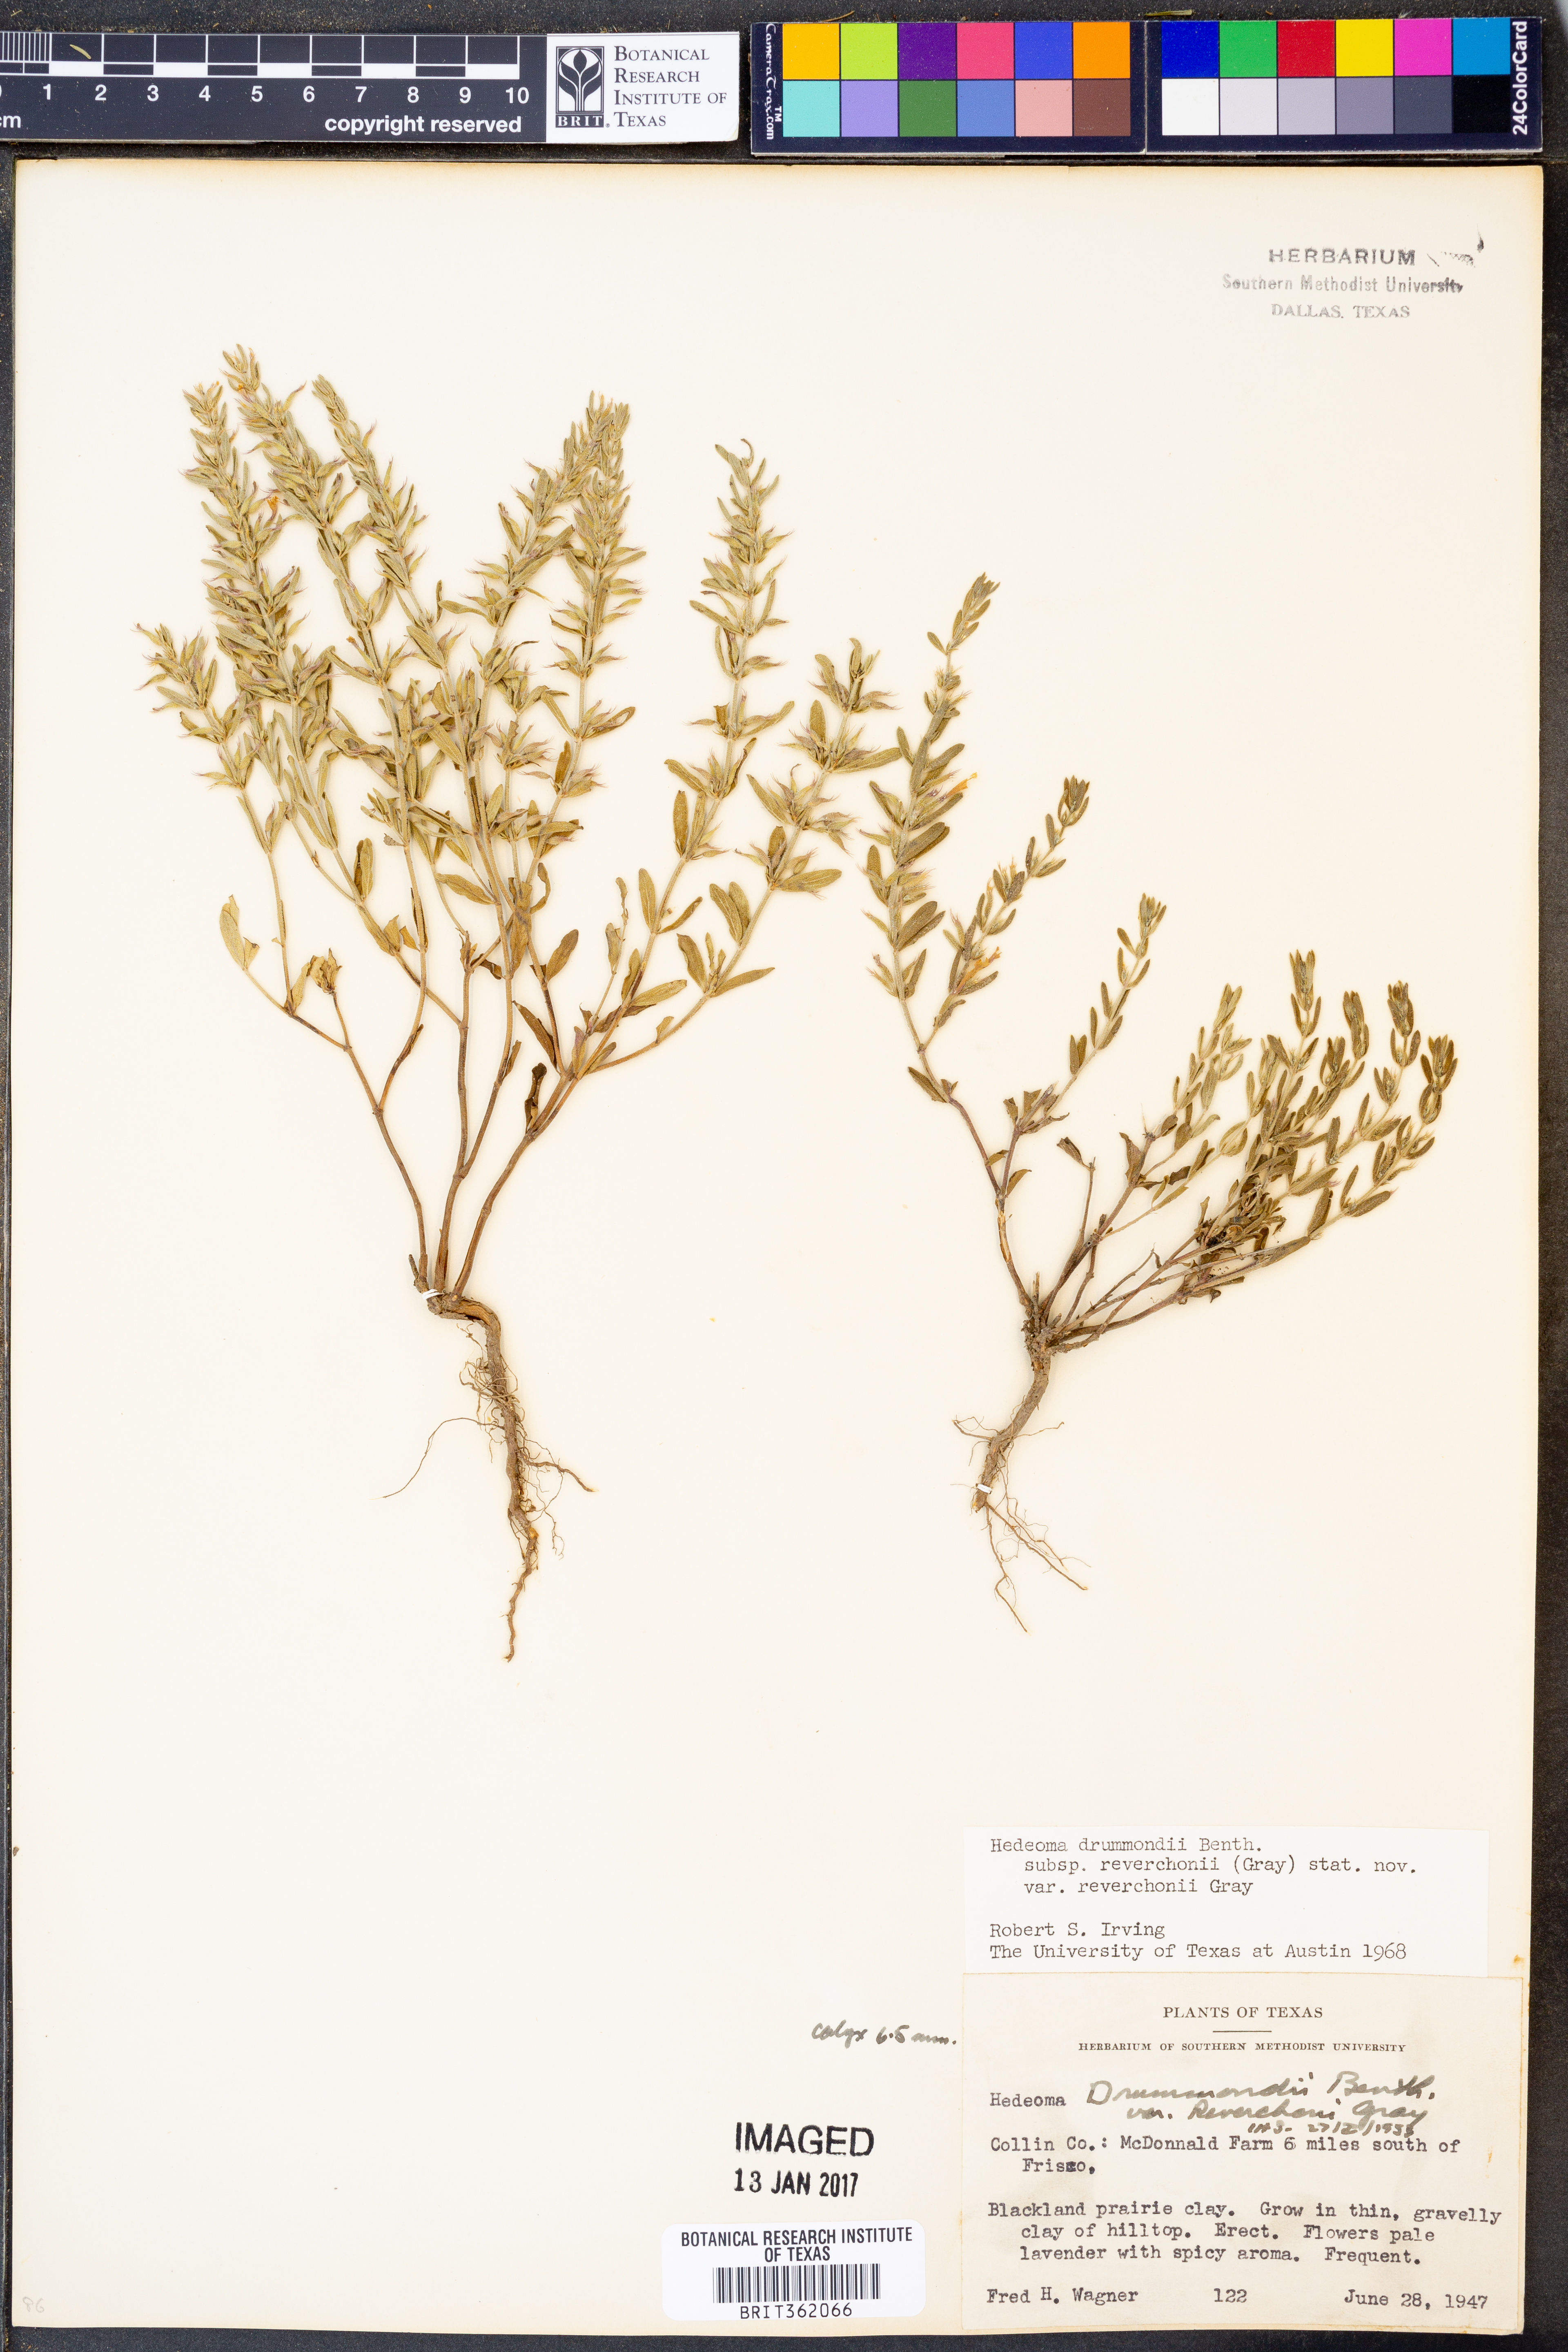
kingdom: Plantae
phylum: Tracheophyta
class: Magnoliopsida
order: Lamiales
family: Lamiaceae
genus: Hedeoma
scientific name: Hedeoma reverchonii
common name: Reverchon's false penny-royal
